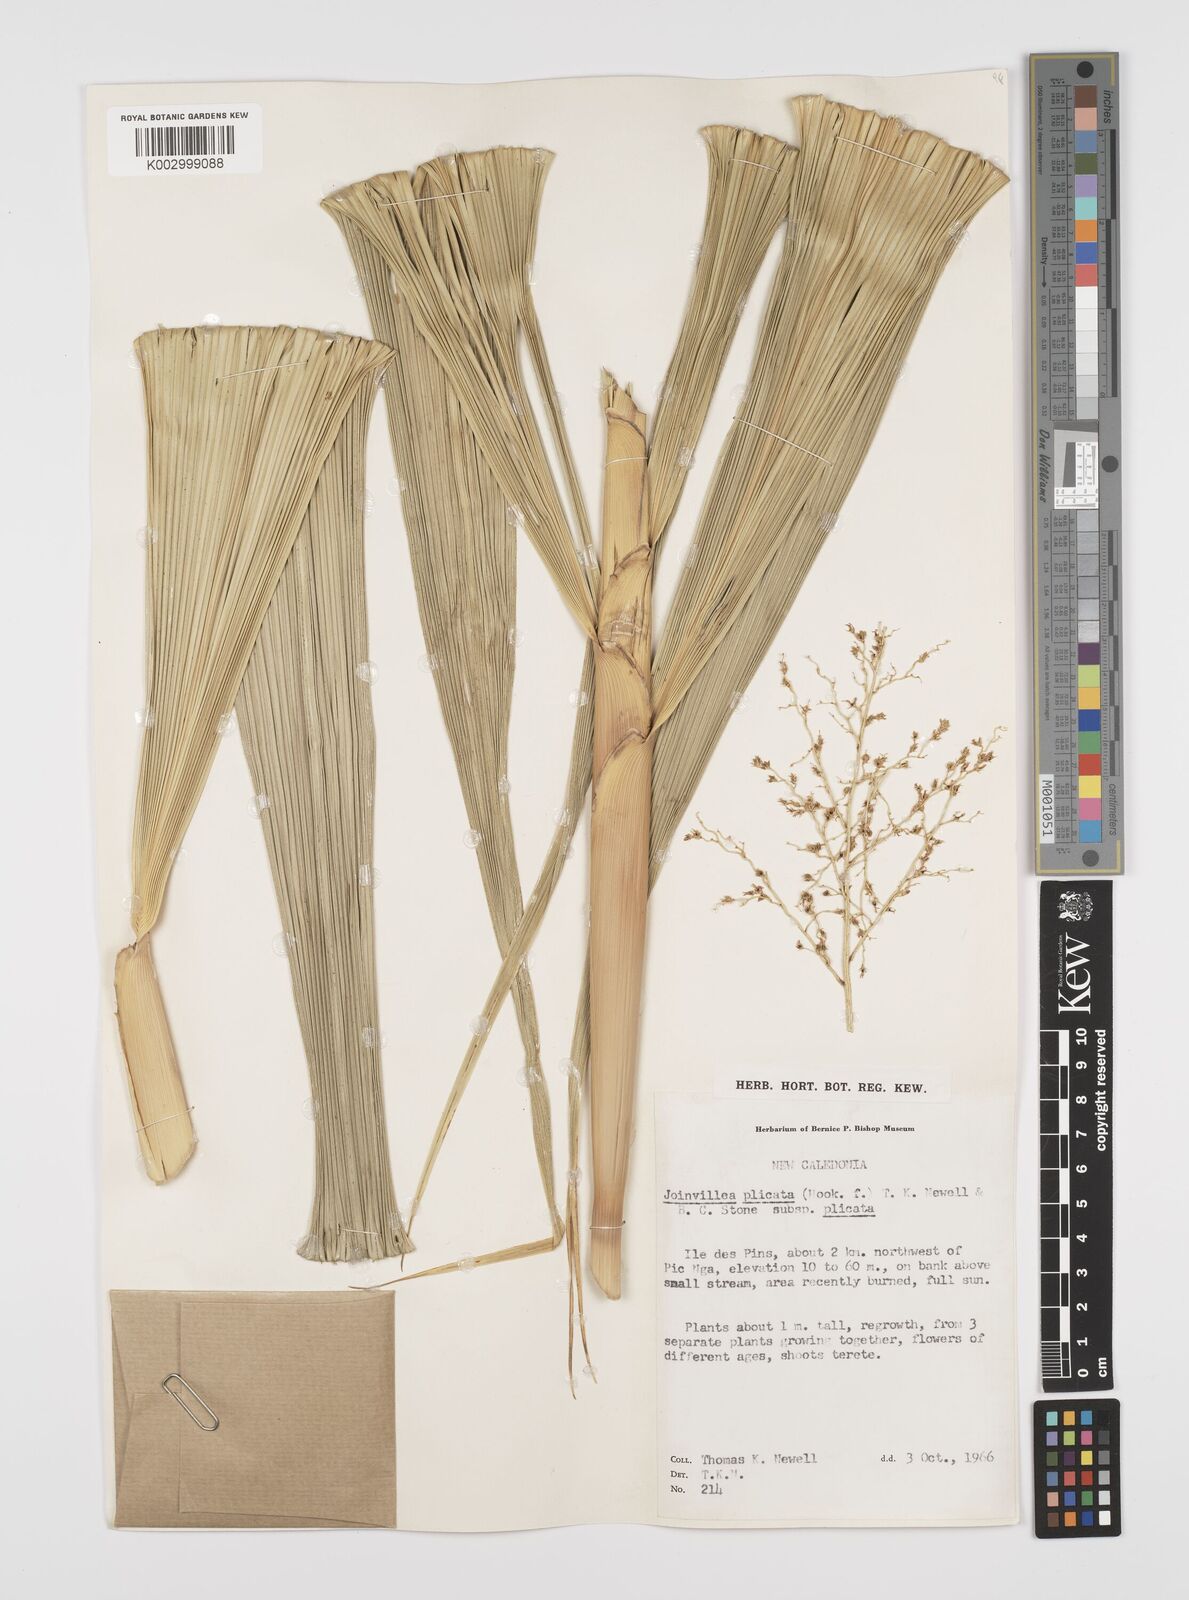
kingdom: Plantae
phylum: Tracheophyta
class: Liliopsida
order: Poales
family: Joinvilleaceae
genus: Joinvillea
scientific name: Joinvillea plicata
